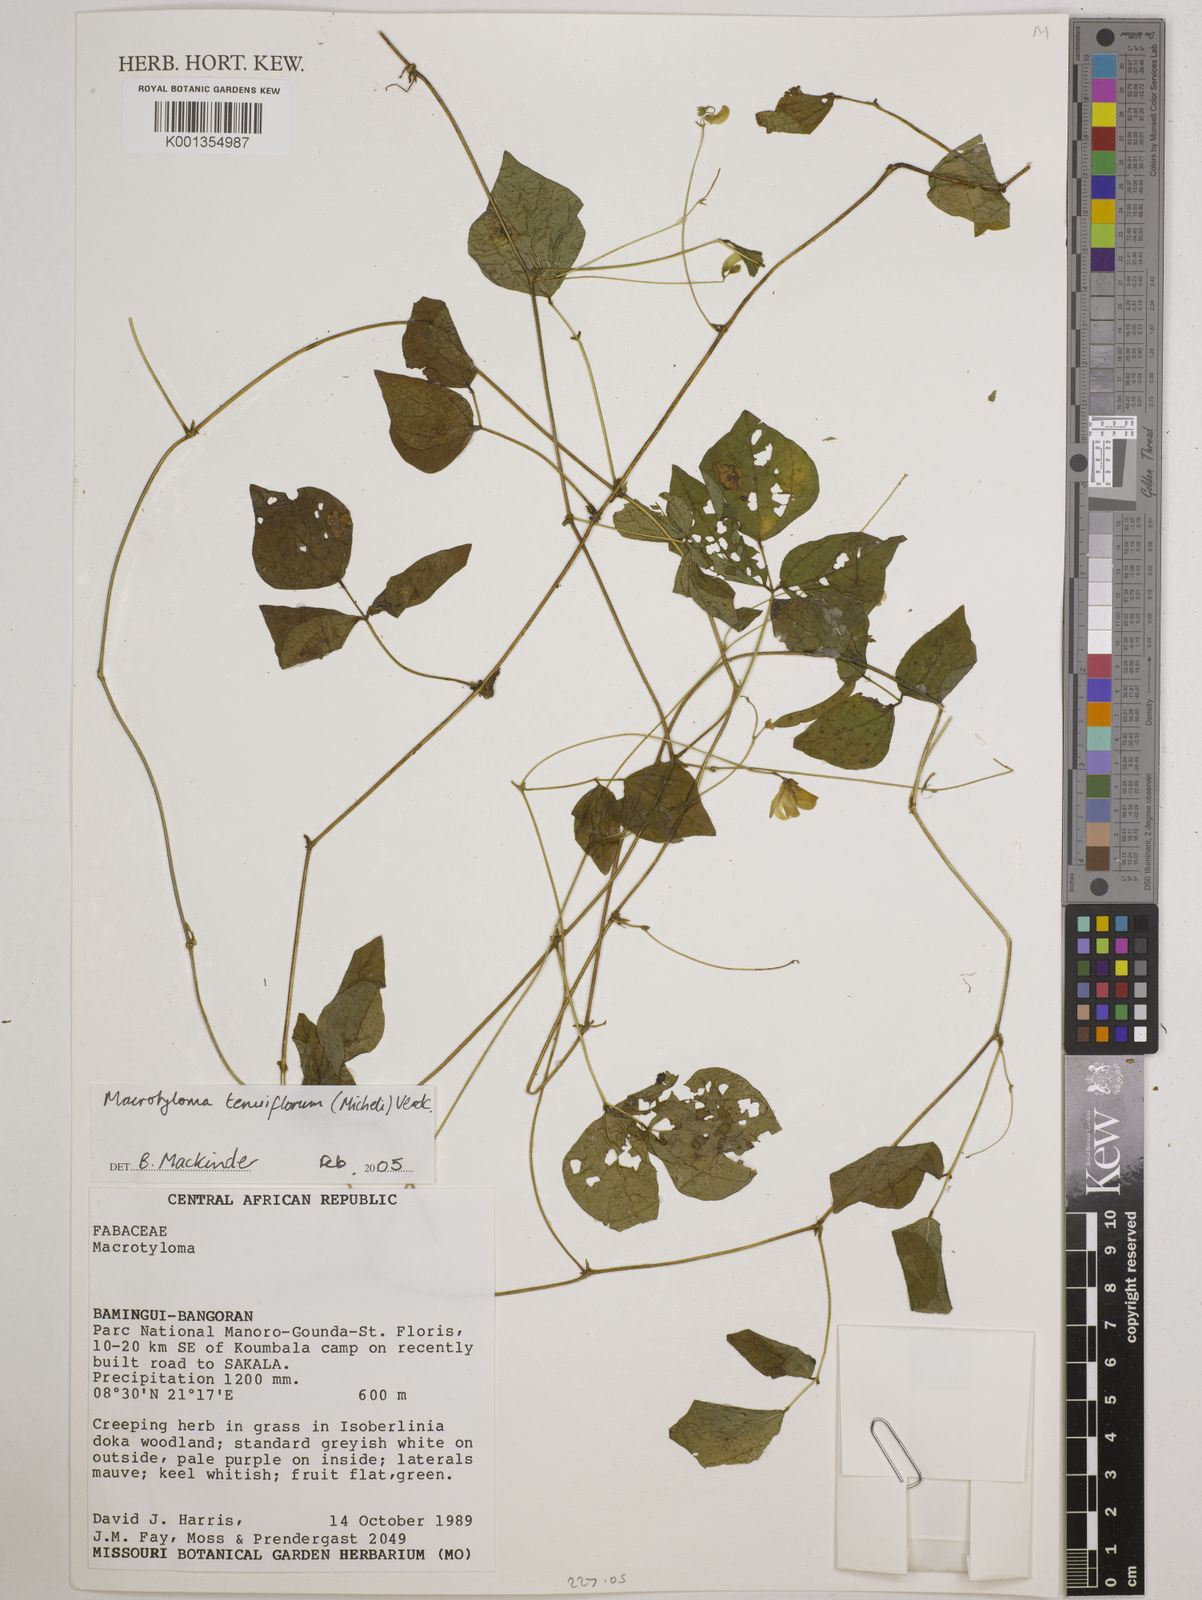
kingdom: Plantae
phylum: Tracheophyta
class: Magnoliopsida
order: Fabales
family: Fabaceae
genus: Macrotyloma
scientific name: Macrotyloma tenuiflorum
